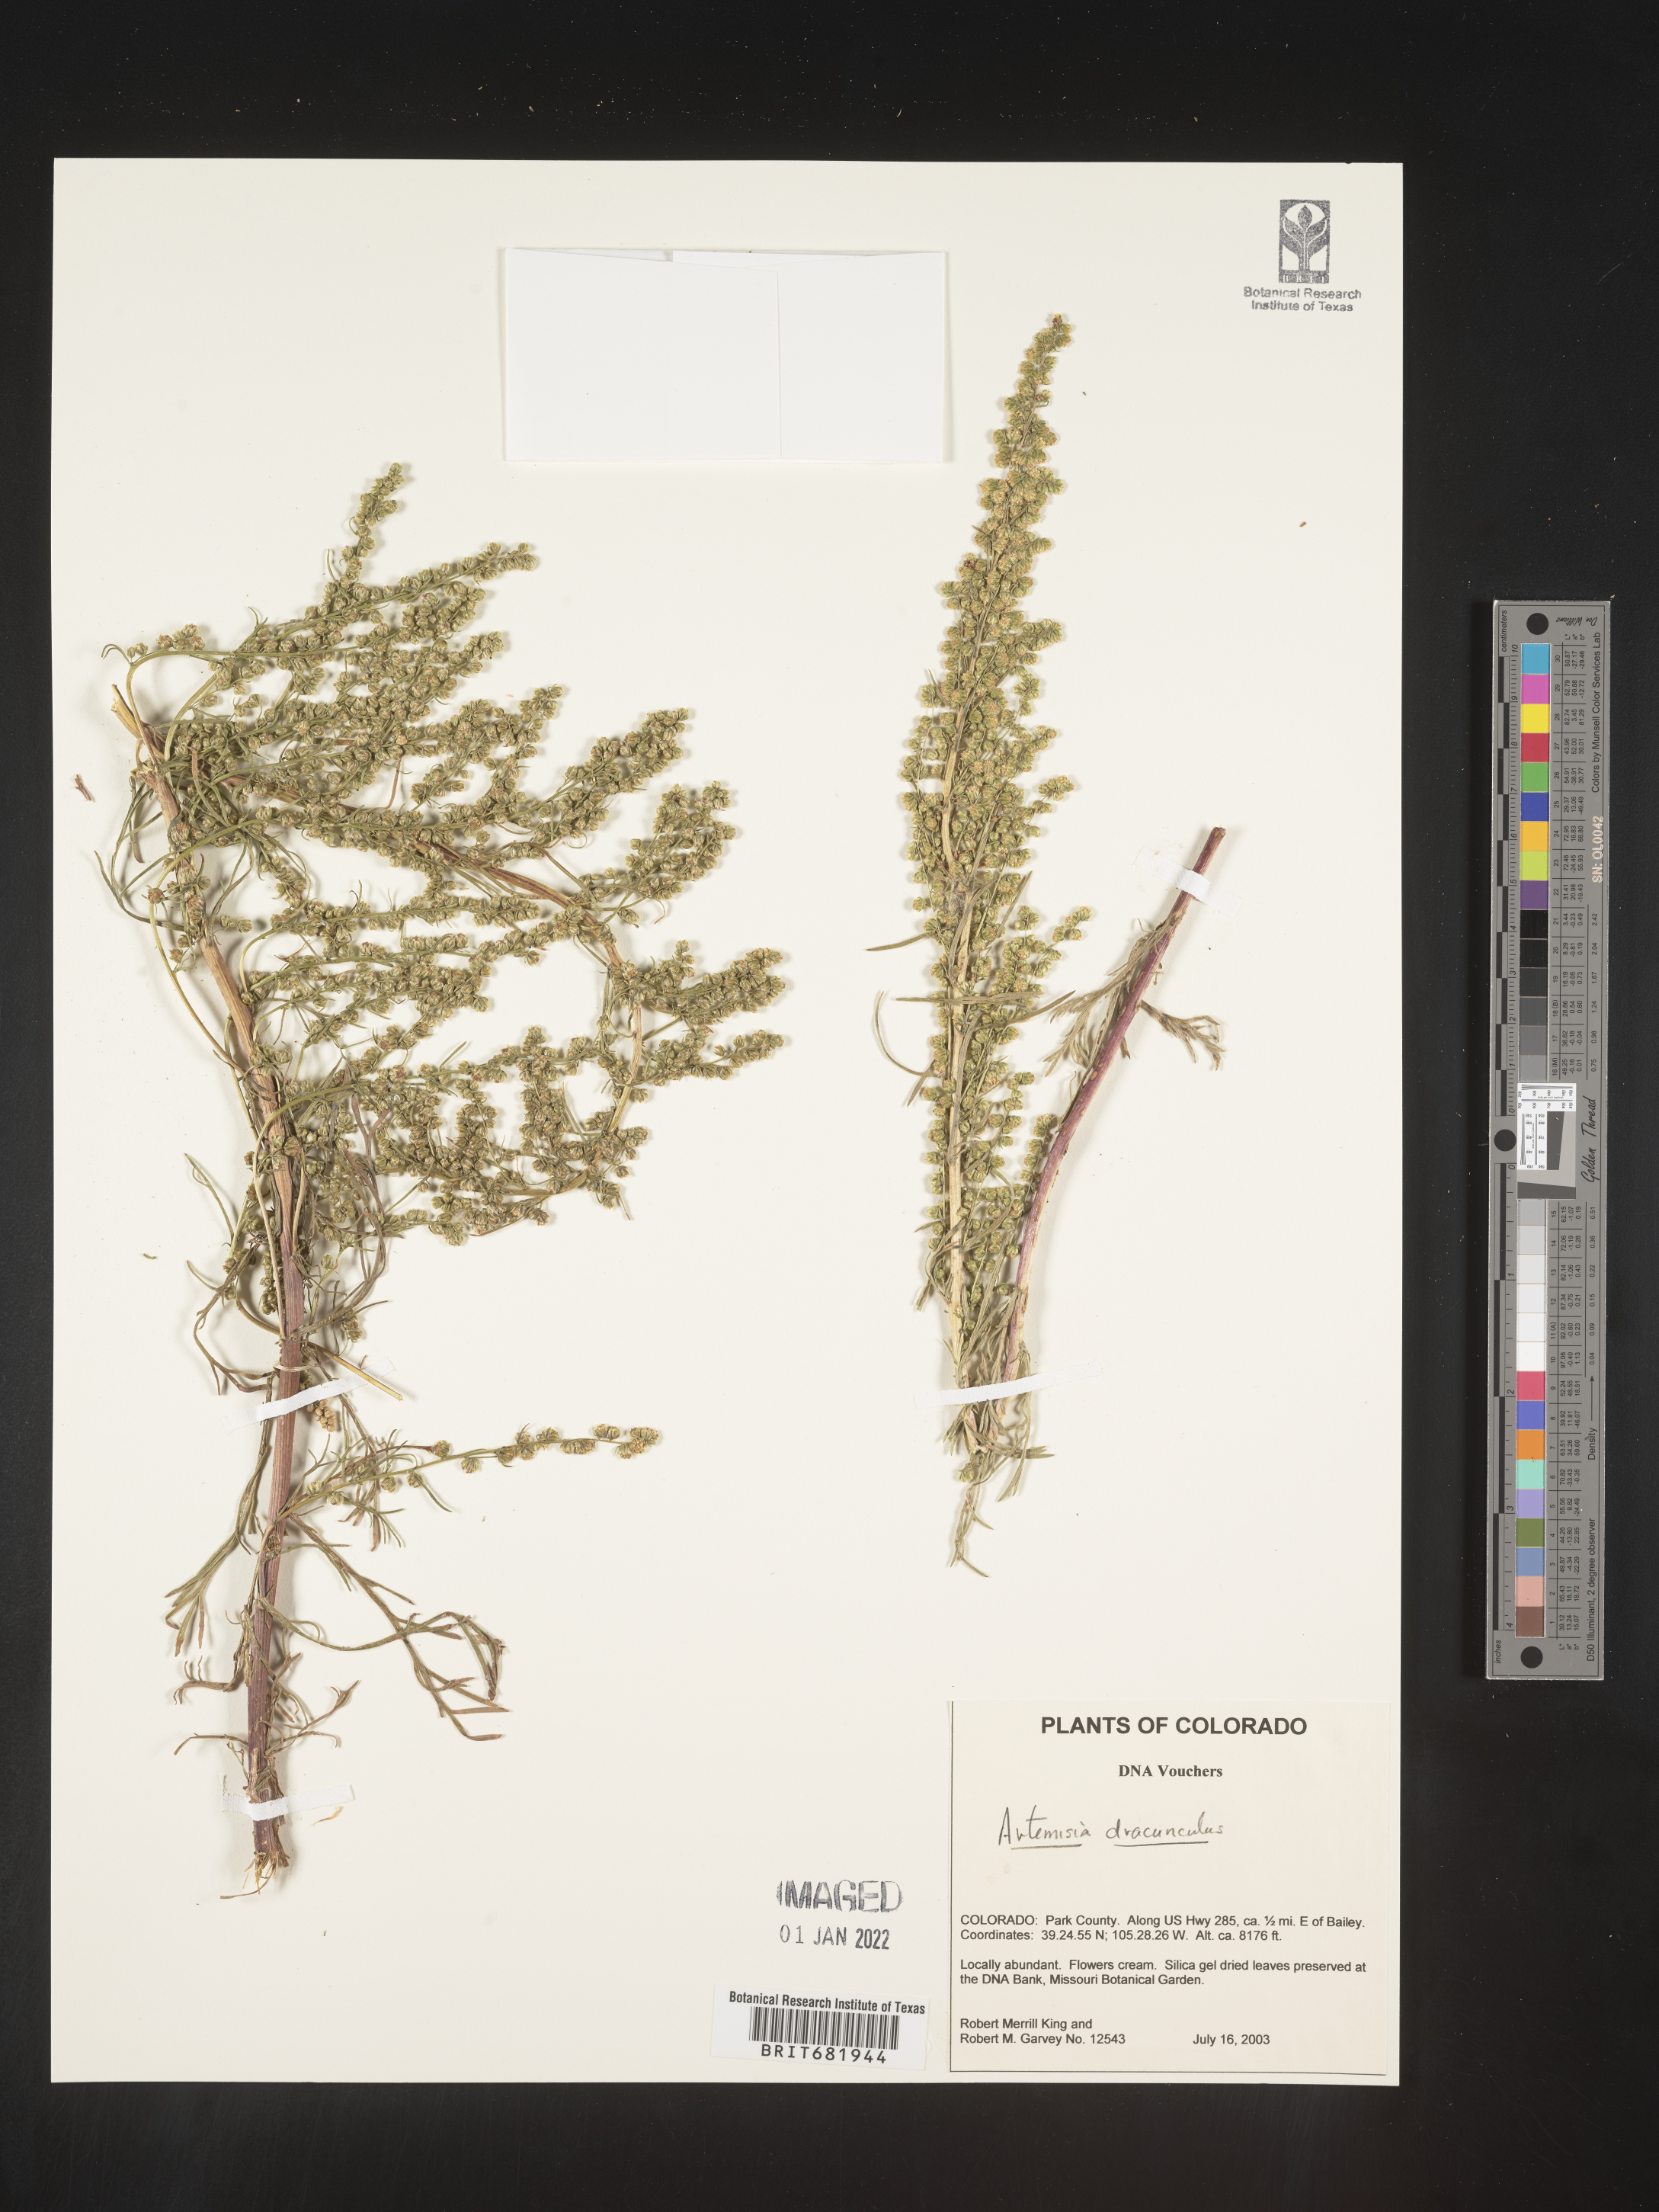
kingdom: Plantae
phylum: Tracheophyta
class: Magnoliopsida
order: Asterales
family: Asteraceae
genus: Artemisia
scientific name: Artemisia dracunculus
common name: Tarragon
